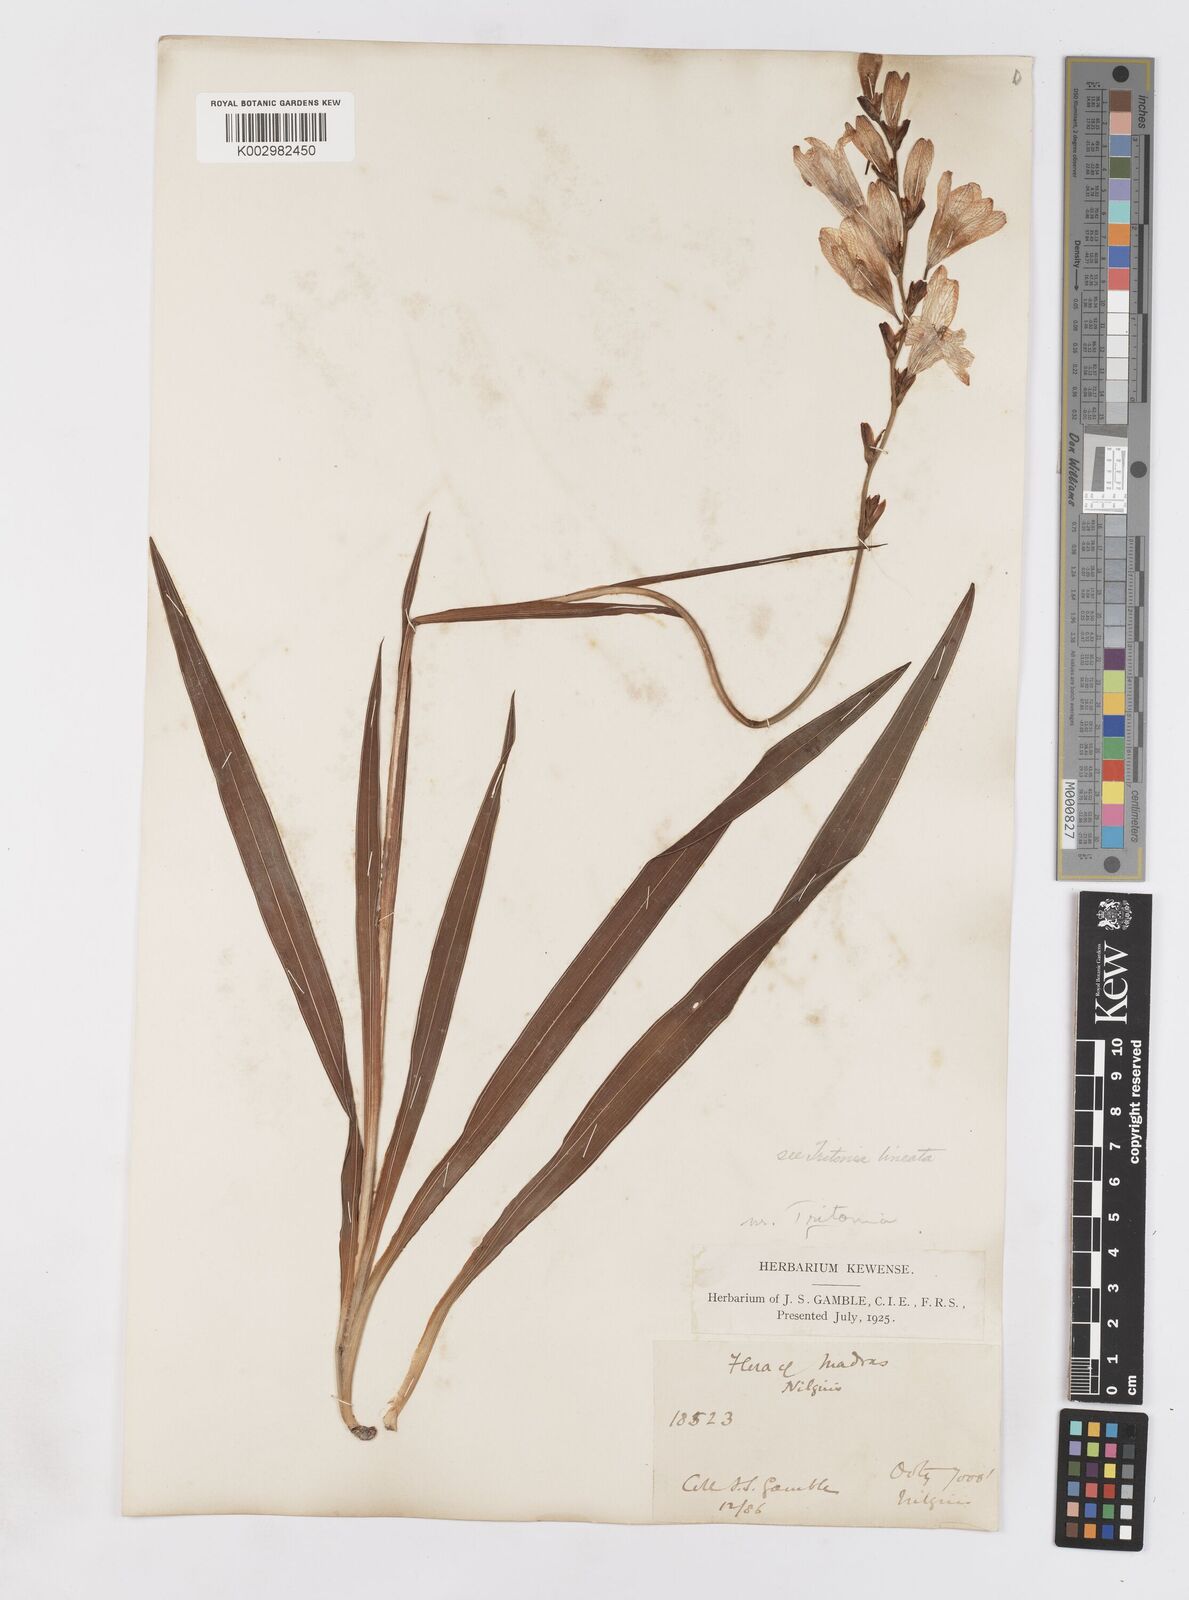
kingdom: Plantae
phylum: Tracheophyta
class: Liliopsida
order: Asparagales
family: Iridaceae
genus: Tritonia
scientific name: Tritonia gladiolaris
